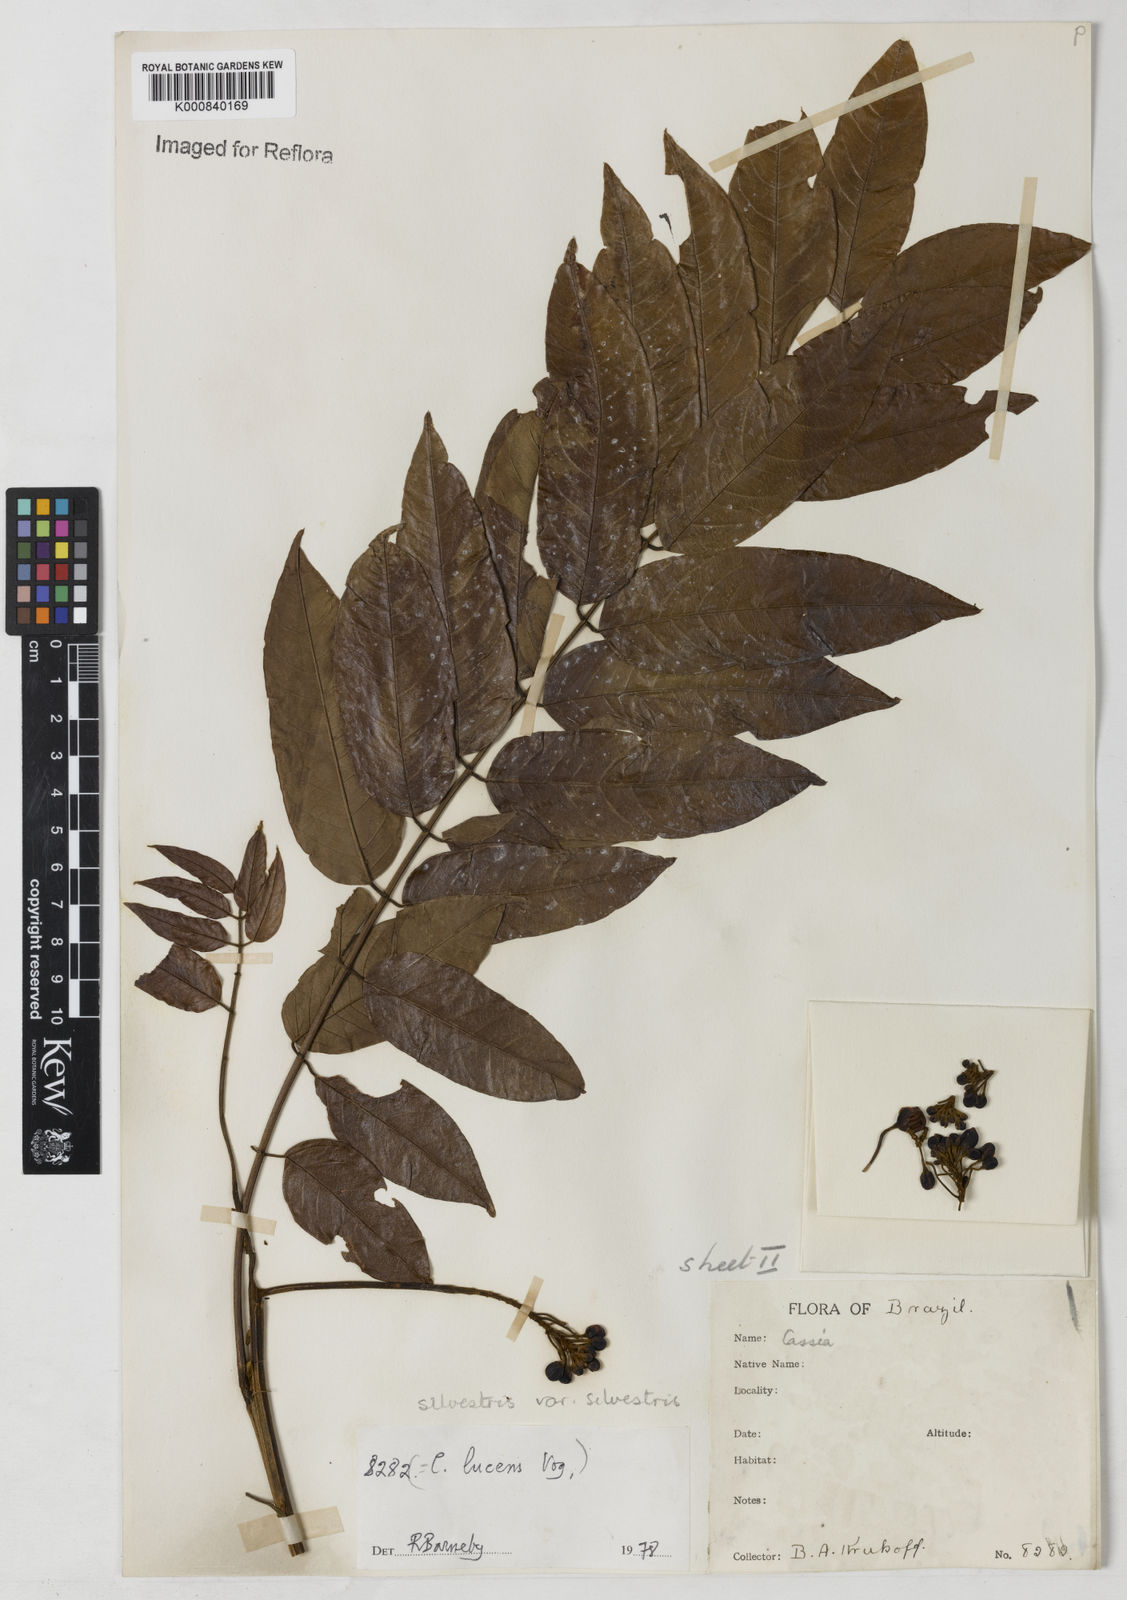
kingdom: Plantae
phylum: Tracheophyta
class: Magnoliopsida
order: Fabales
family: Fabaceae
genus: Senna
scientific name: Senna silvestris
